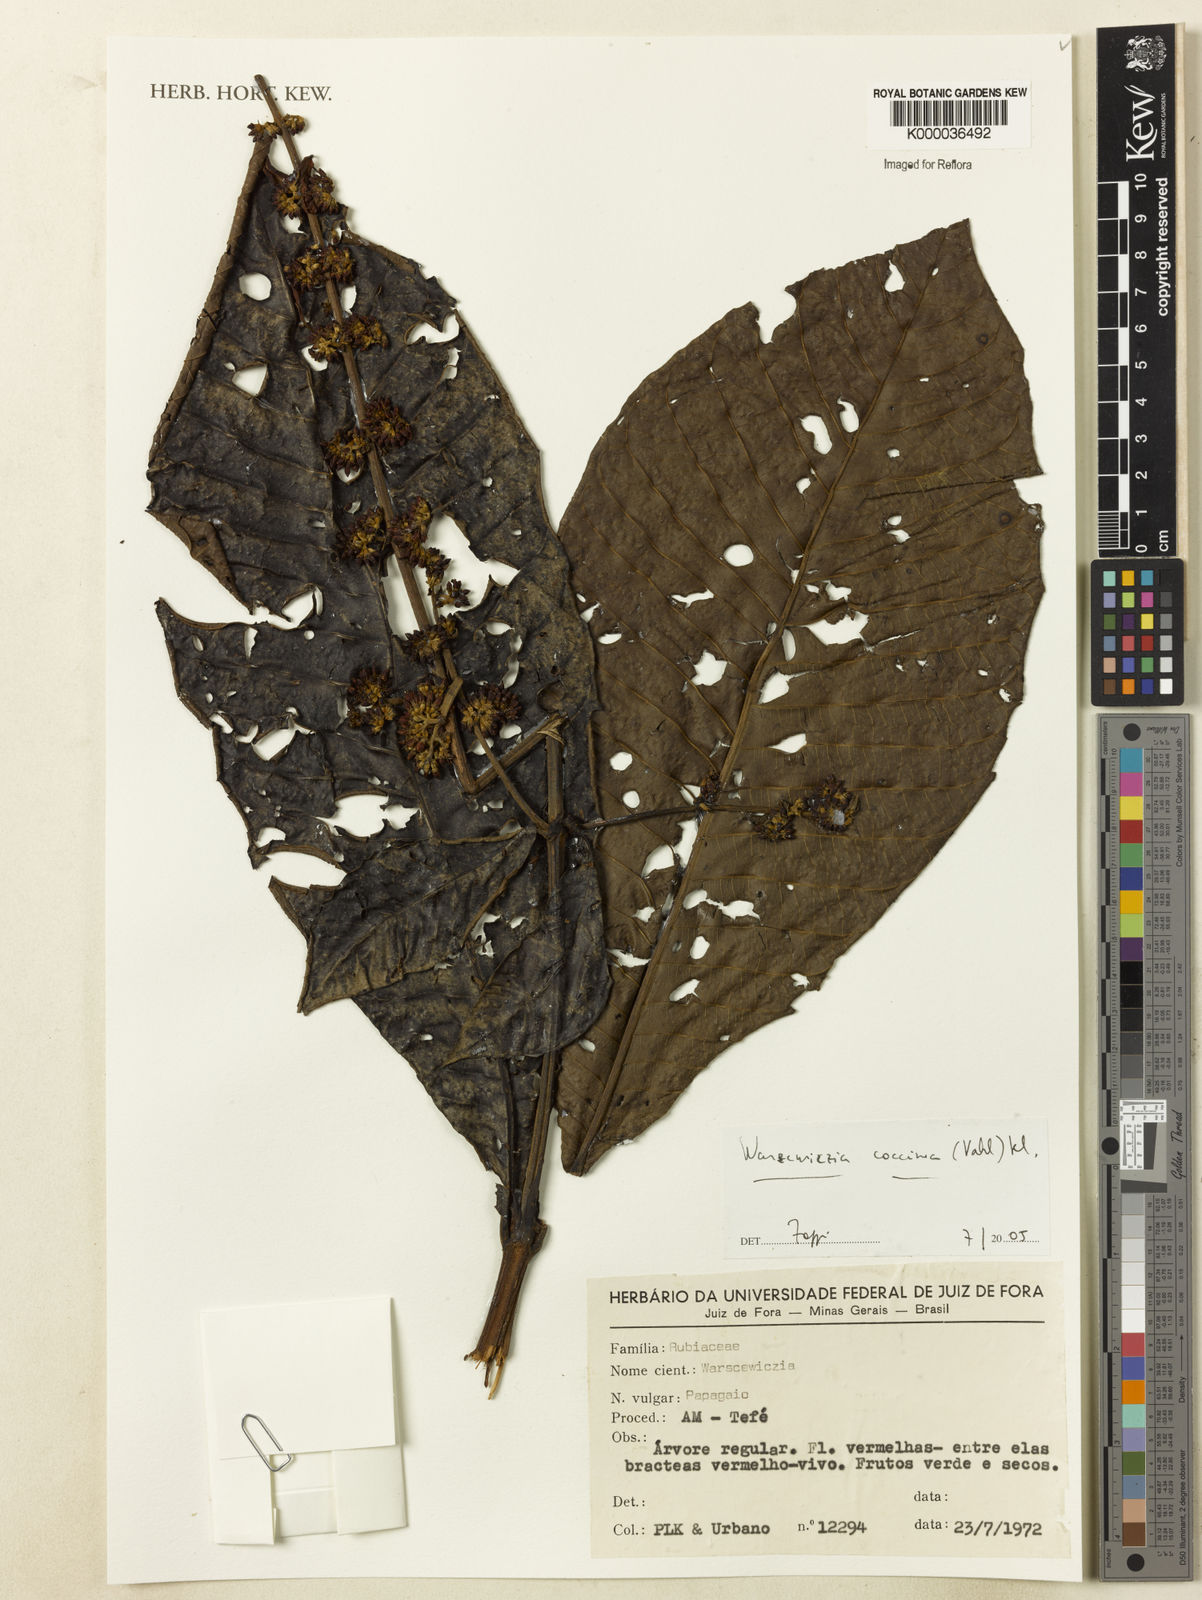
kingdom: Plantae
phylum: Tracheophyta
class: Magnoliopsida
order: Gentianales
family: Rubiaceae
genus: Warszewiczia
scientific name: Warszewiczia coccinea
